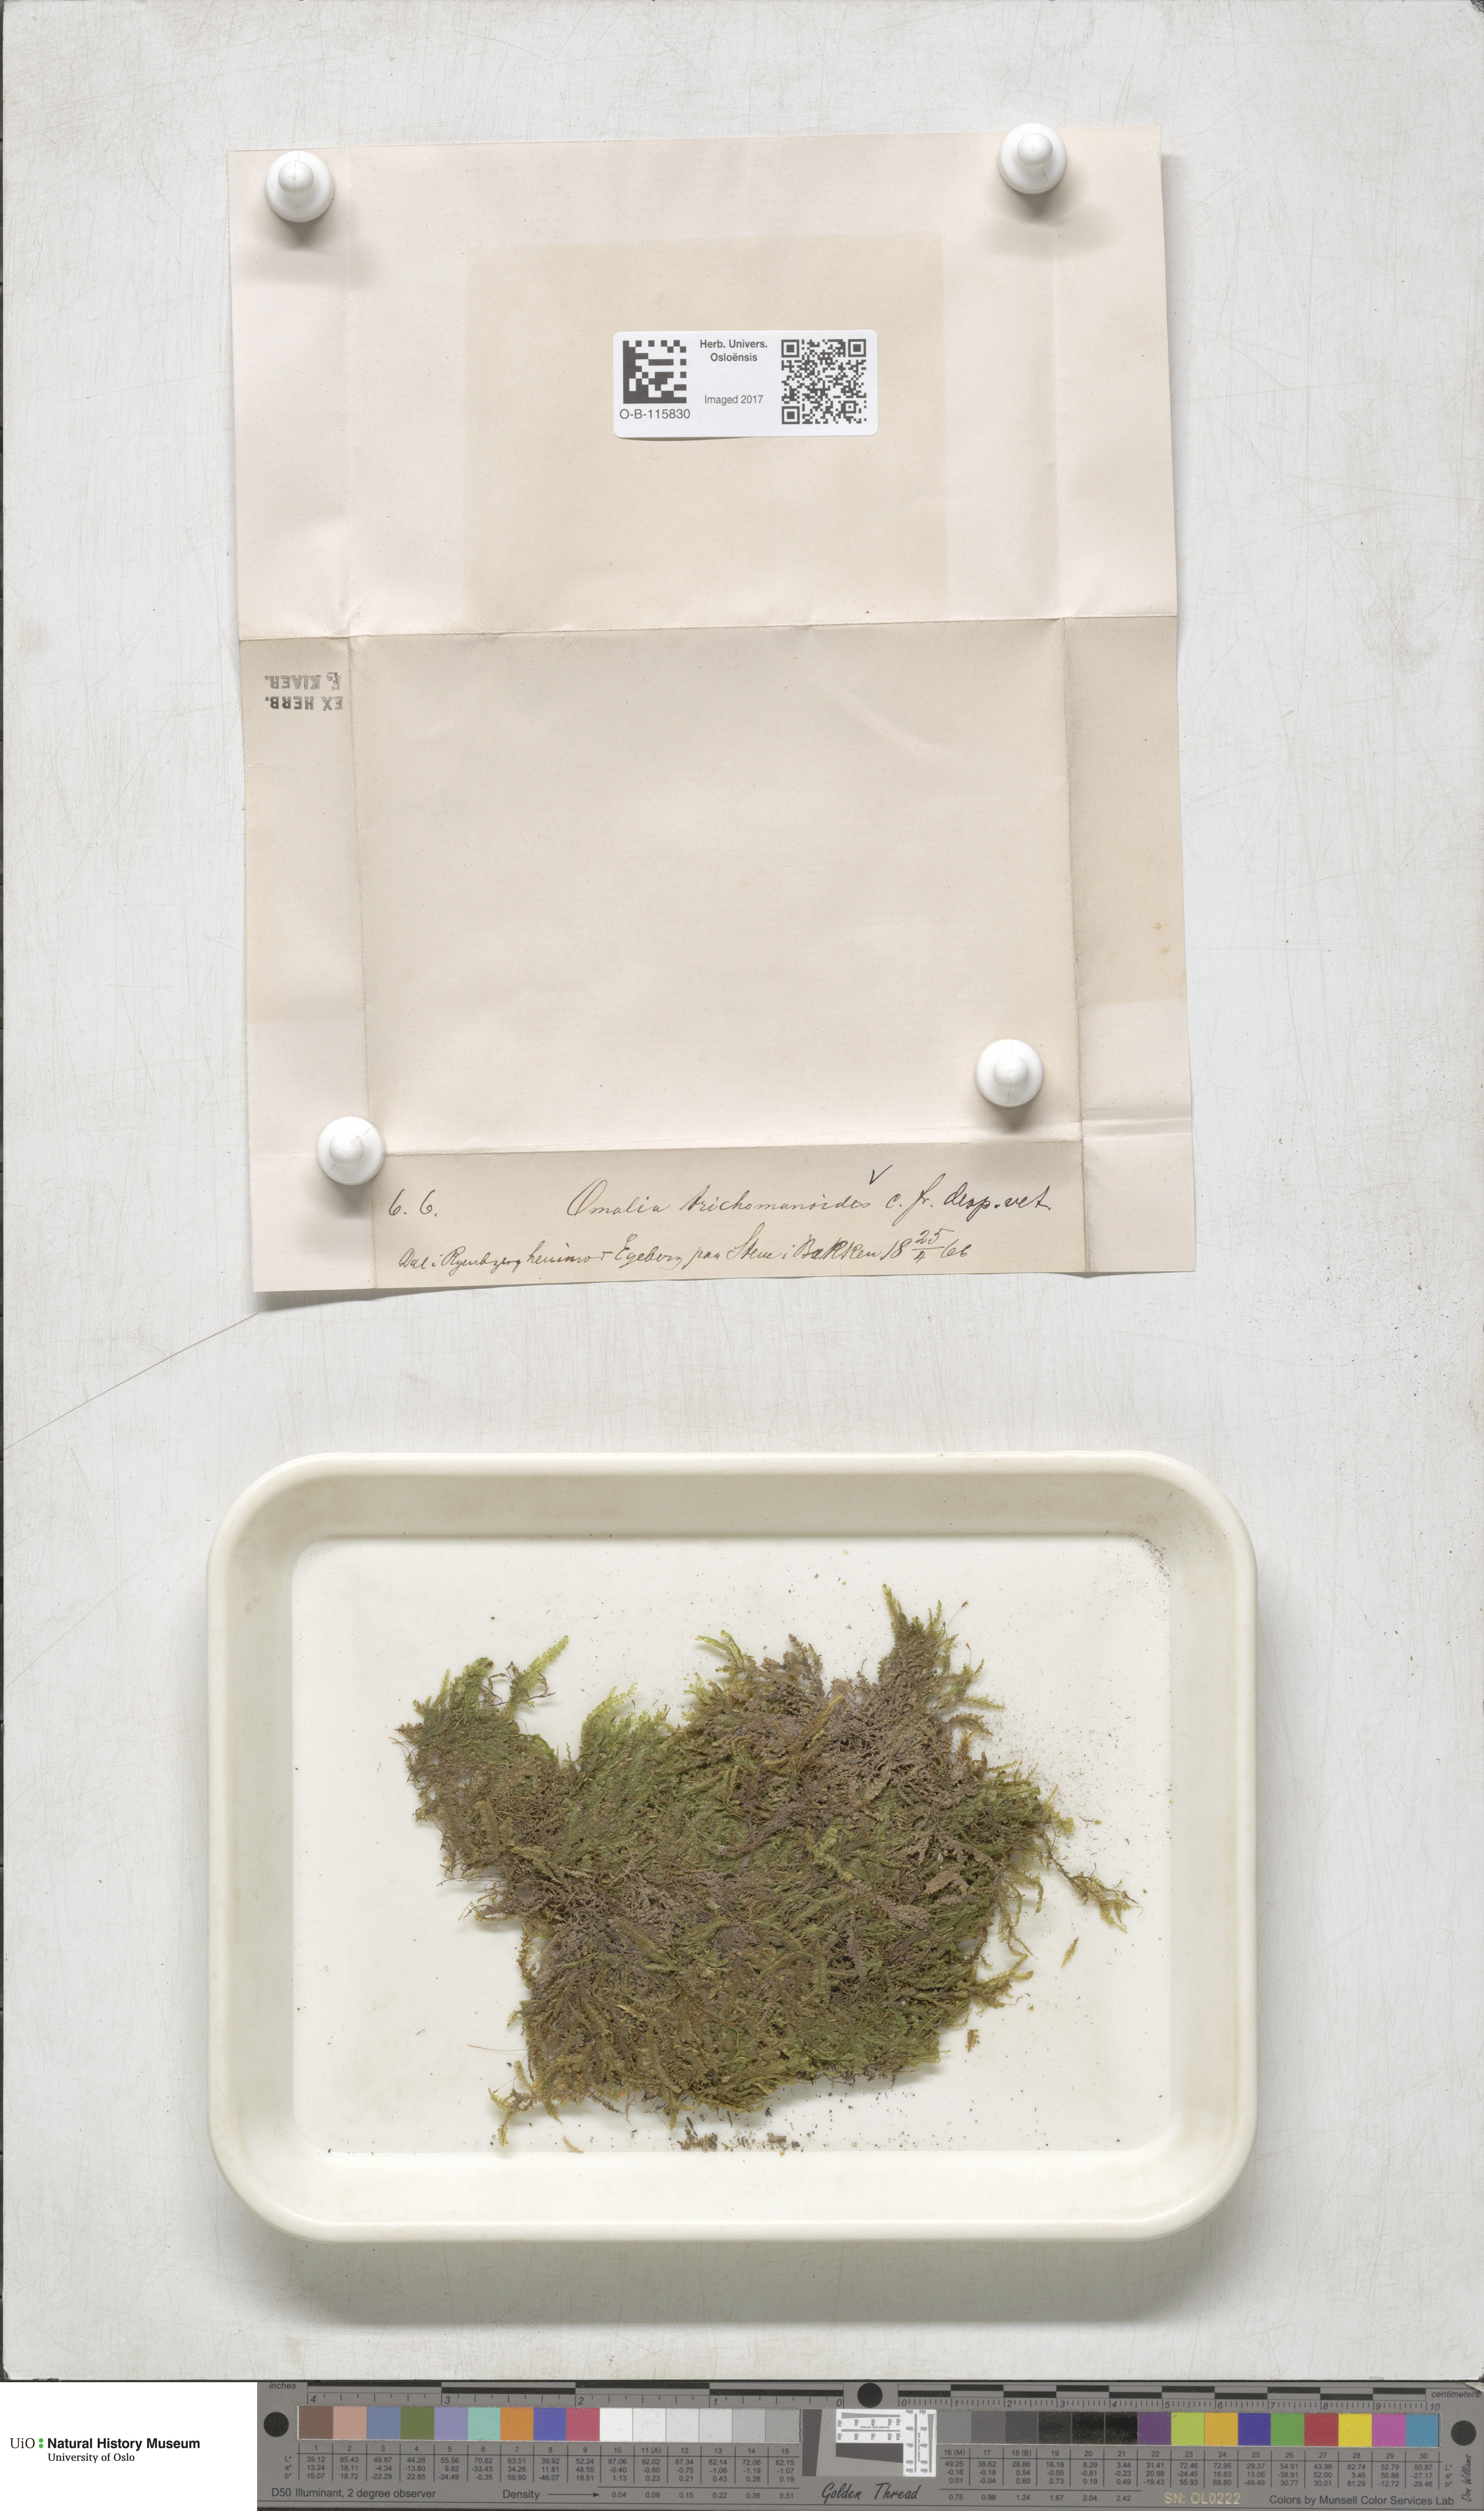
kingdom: Plantae
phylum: Bryophyta
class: Bryopsida
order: Hypnales
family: Neckeraceae
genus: Homalia
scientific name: Homalia trichomanoides
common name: Lime homalia moss
